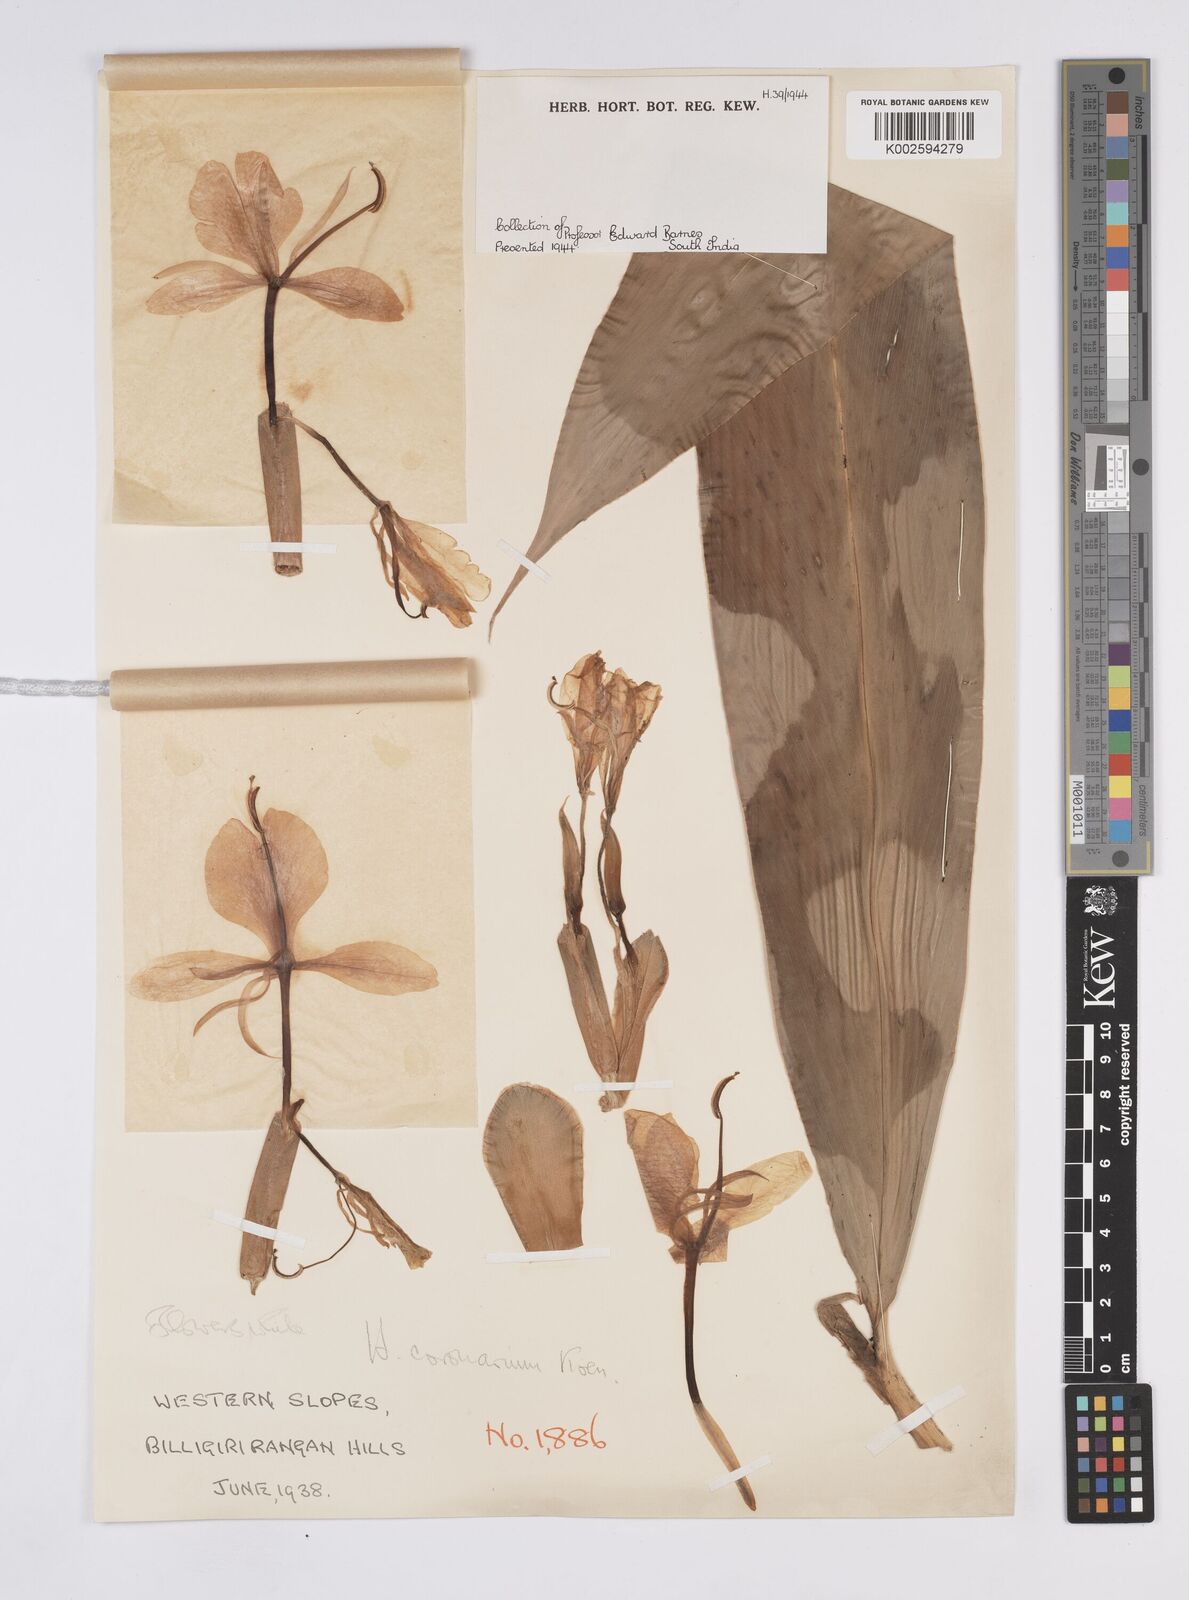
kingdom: Plantae
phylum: Tracheophyta
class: Liliopsida
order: Zingiberales
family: Zingiberaceae
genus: Hedychium
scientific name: Hedychium coronarium
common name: White garland-lily
